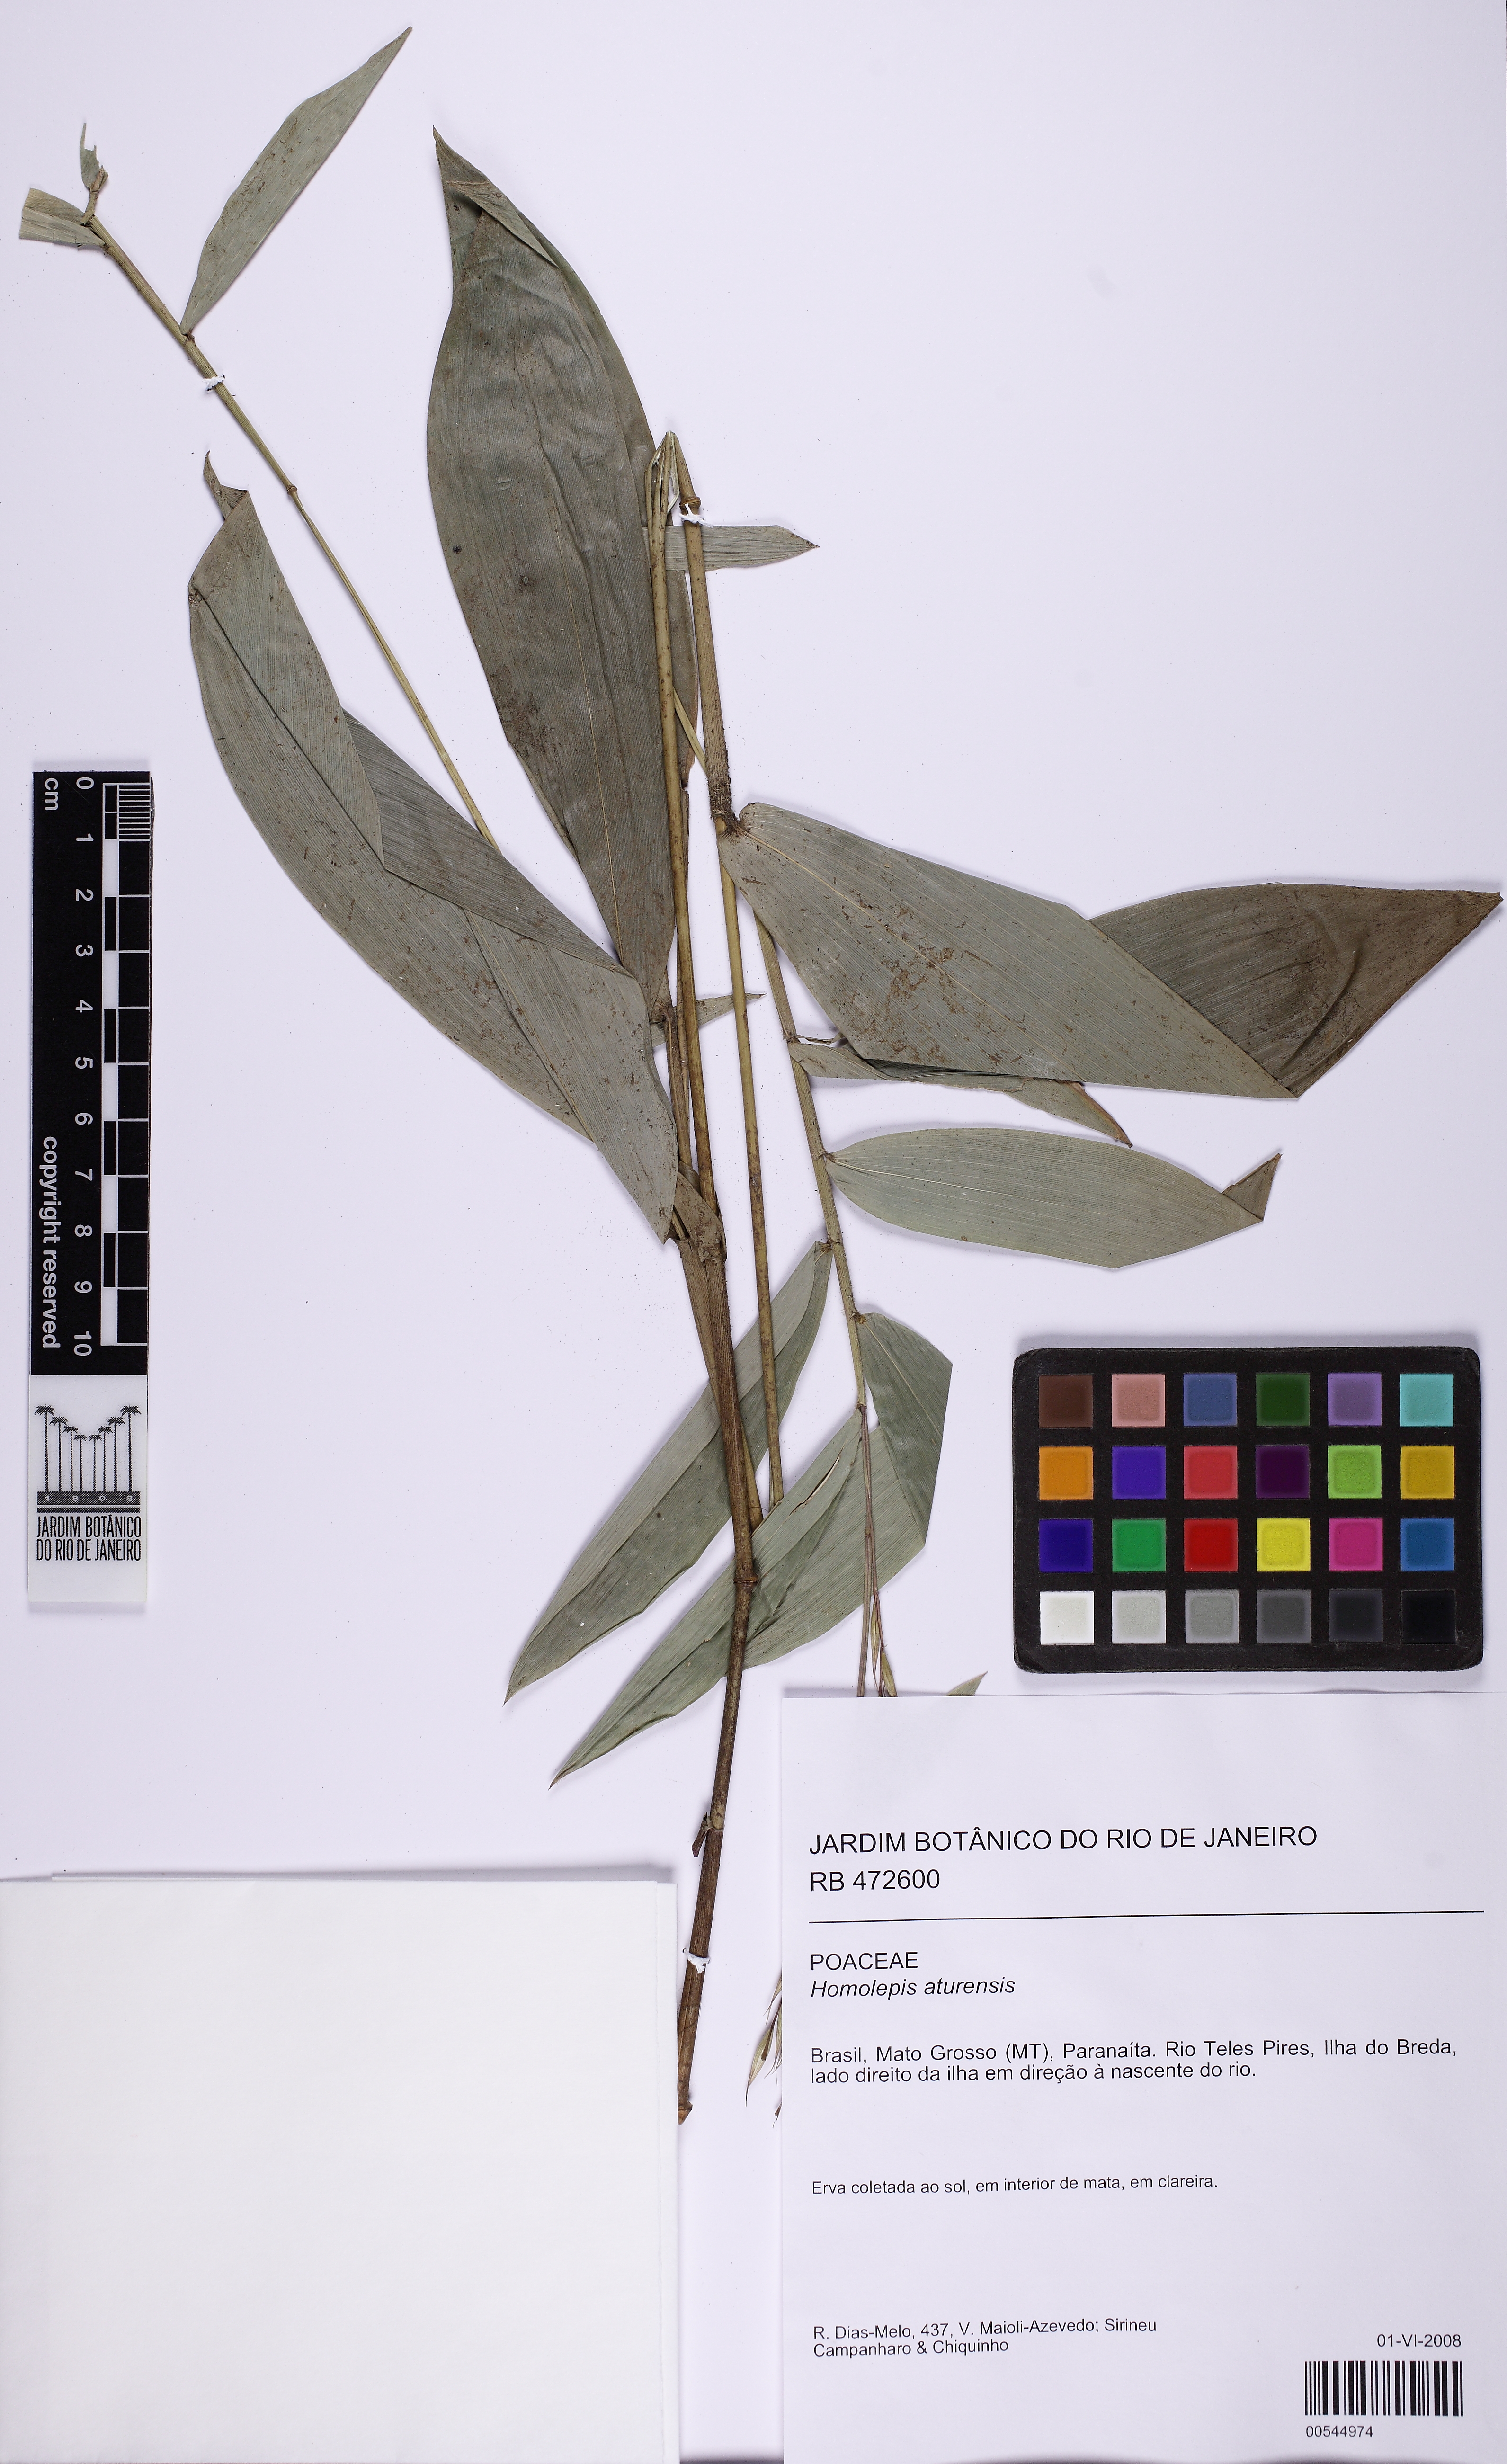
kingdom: Plantae
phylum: Tracheophyta
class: Liliopsida
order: Poales
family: Poaceae
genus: Homolepis
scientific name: Homolepis aturensis
